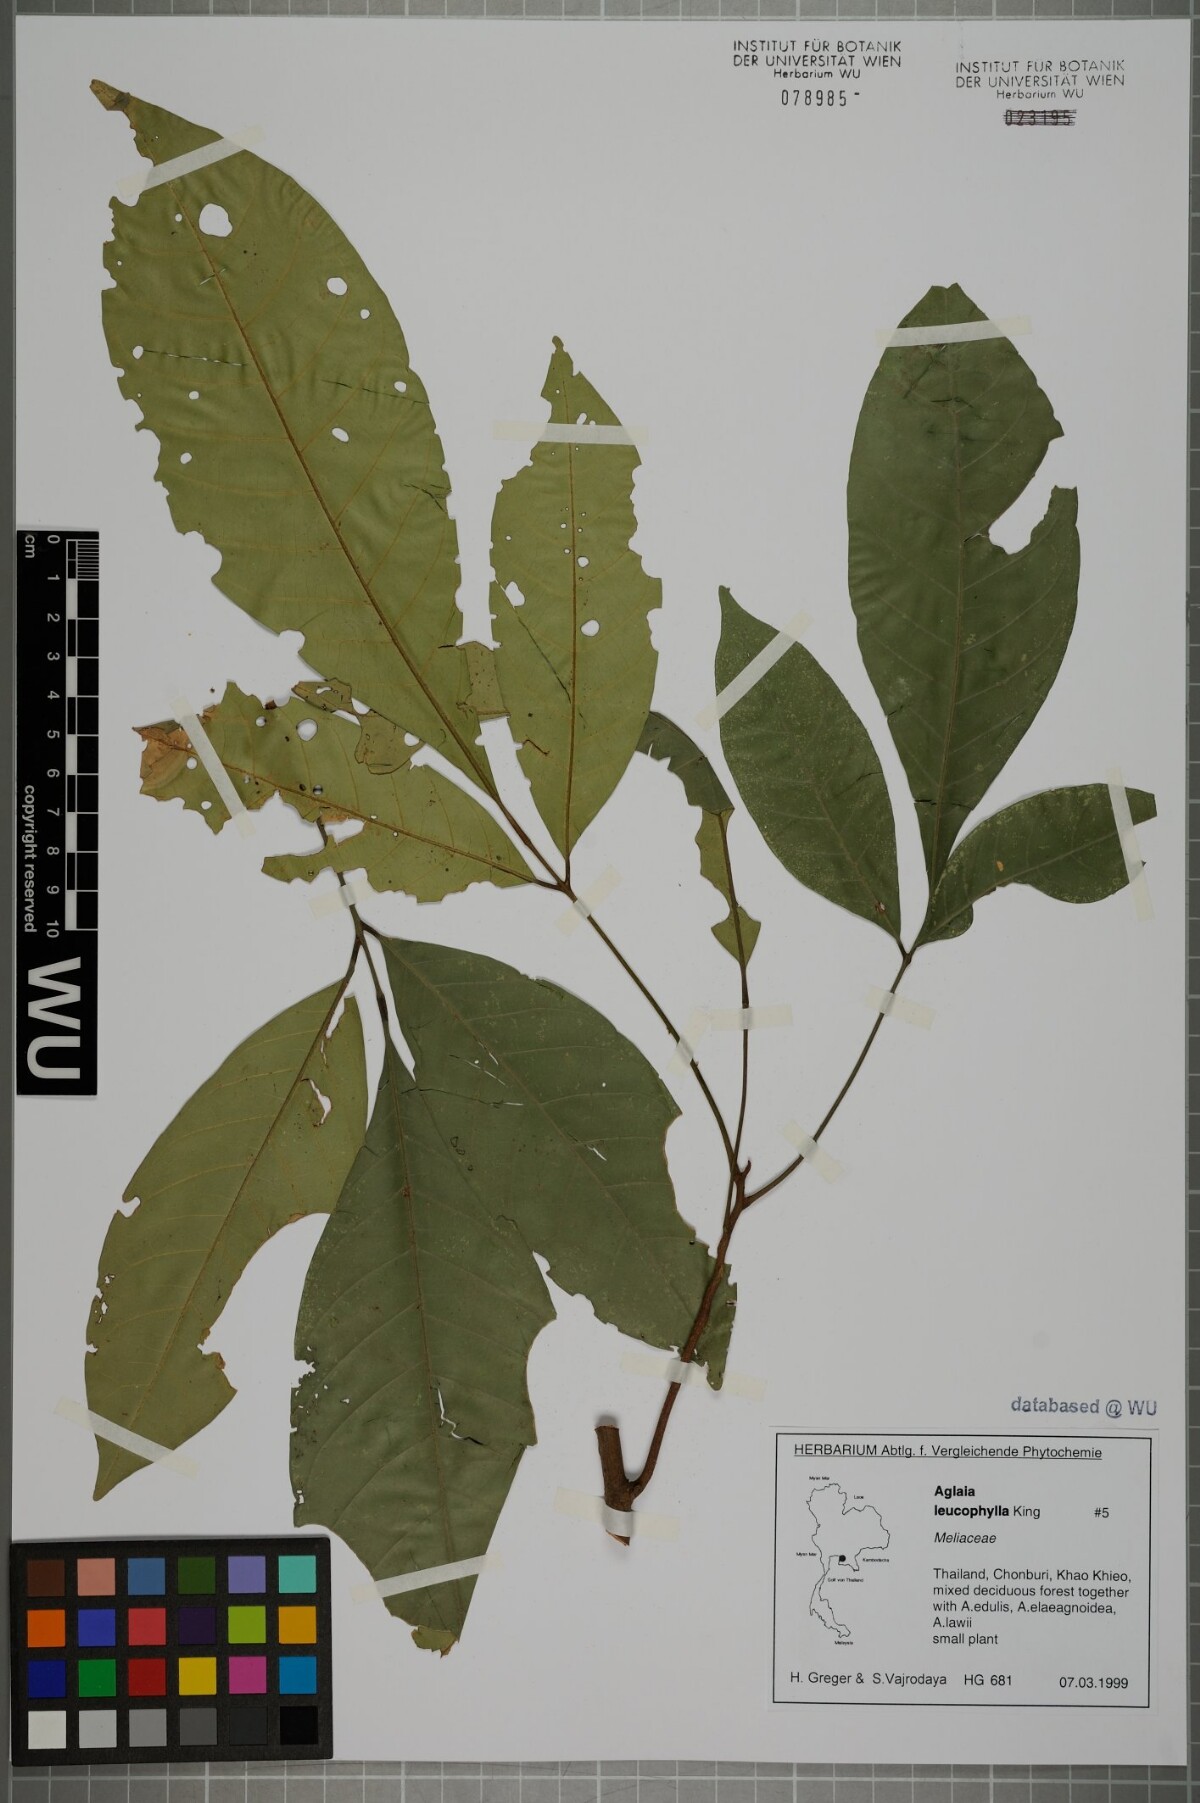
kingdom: Plantae
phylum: Tracheophyta
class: Magnoliopsida
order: Sapindales
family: Meliaceae
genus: Aglaia
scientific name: Aglaia leucophylla
